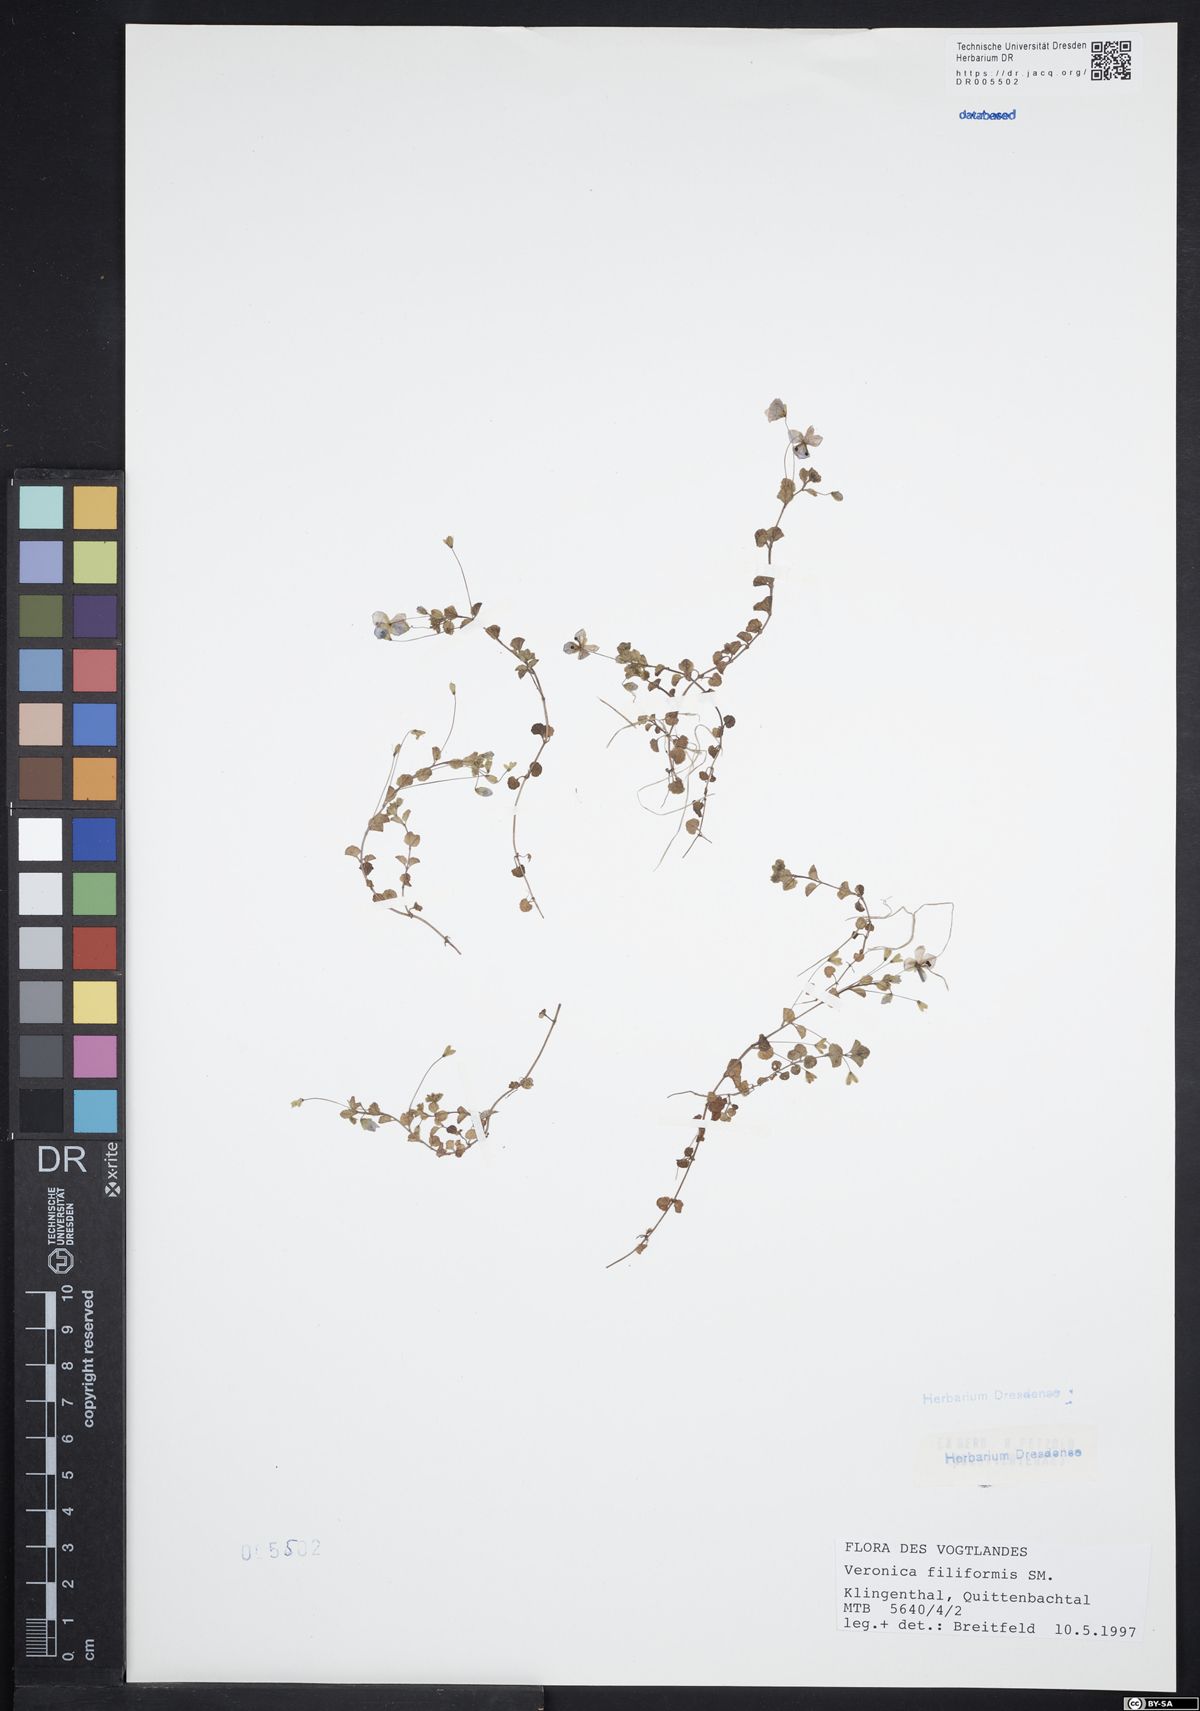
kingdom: Plantae
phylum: Tracheophyta
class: Magnoliopsida
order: Lamiales
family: Plantaginaceae
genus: Veronica
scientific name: Veronica filiformis
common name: Slender speedwell
